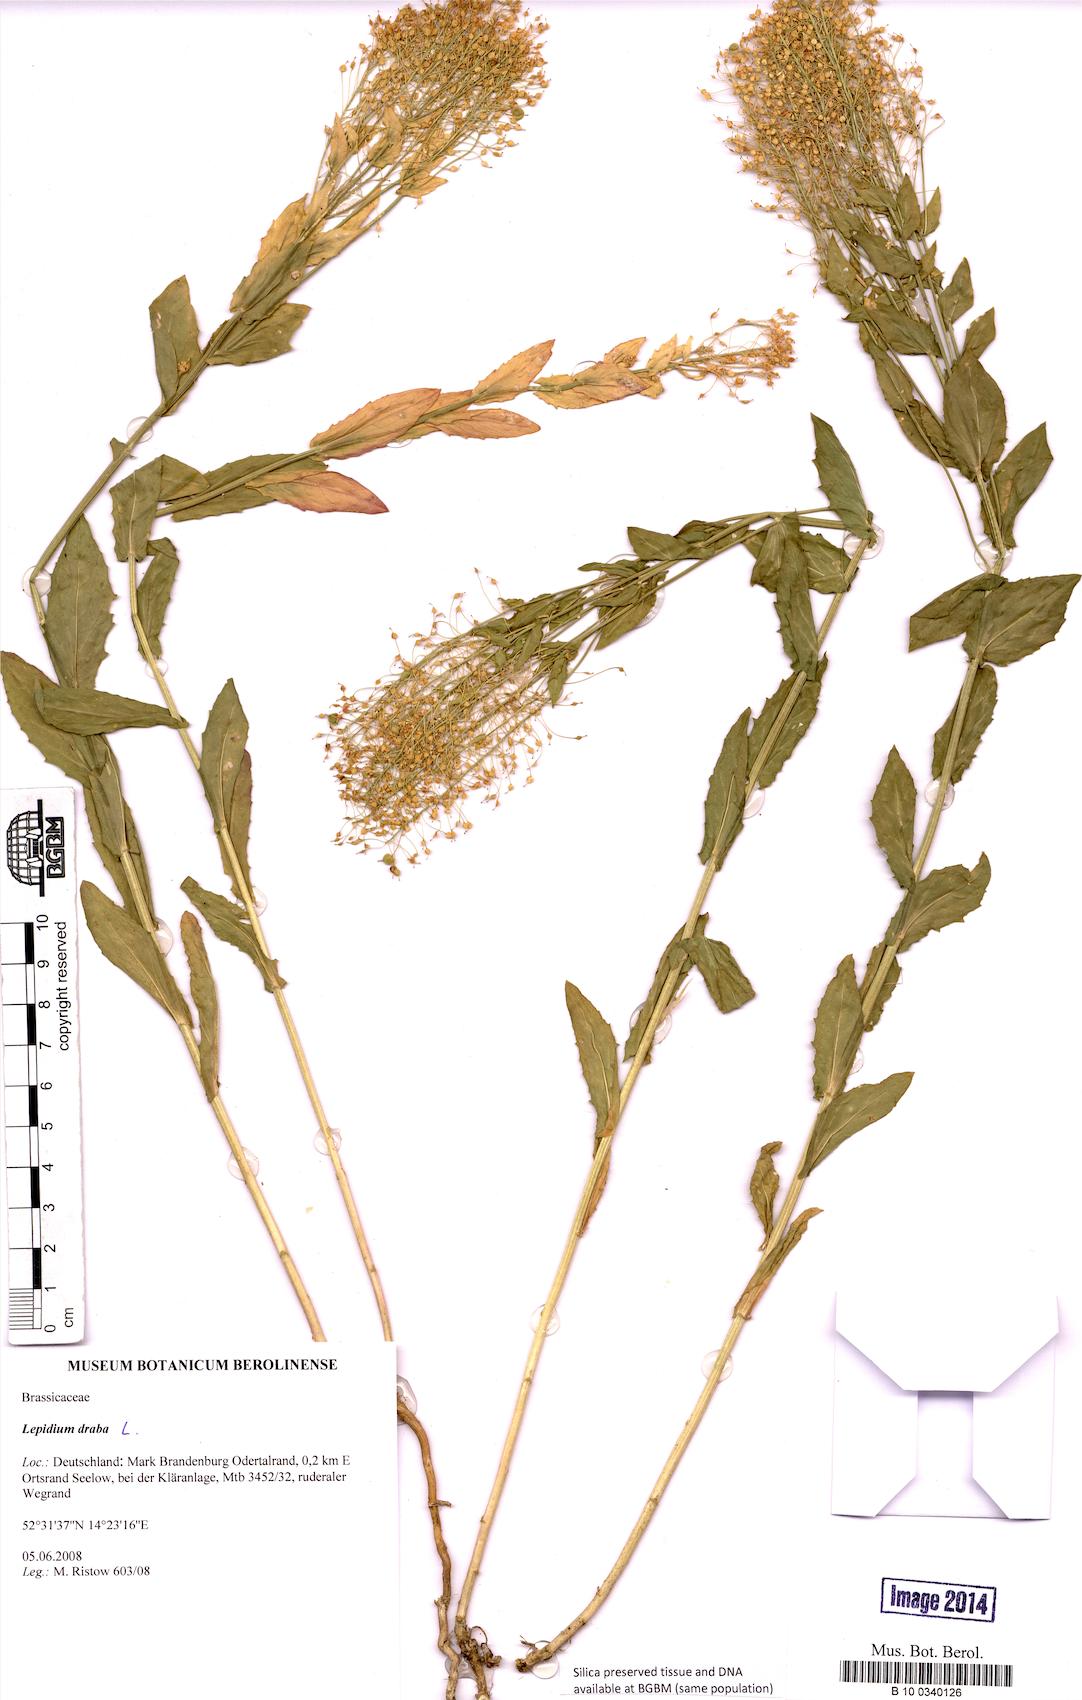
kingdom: Plantae
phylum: Tracheophyta
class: Magnoliopsida
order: Brassicales
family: Brassicaceae
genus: Lepidium
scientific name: Lepidium draba
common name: Hoary cress
